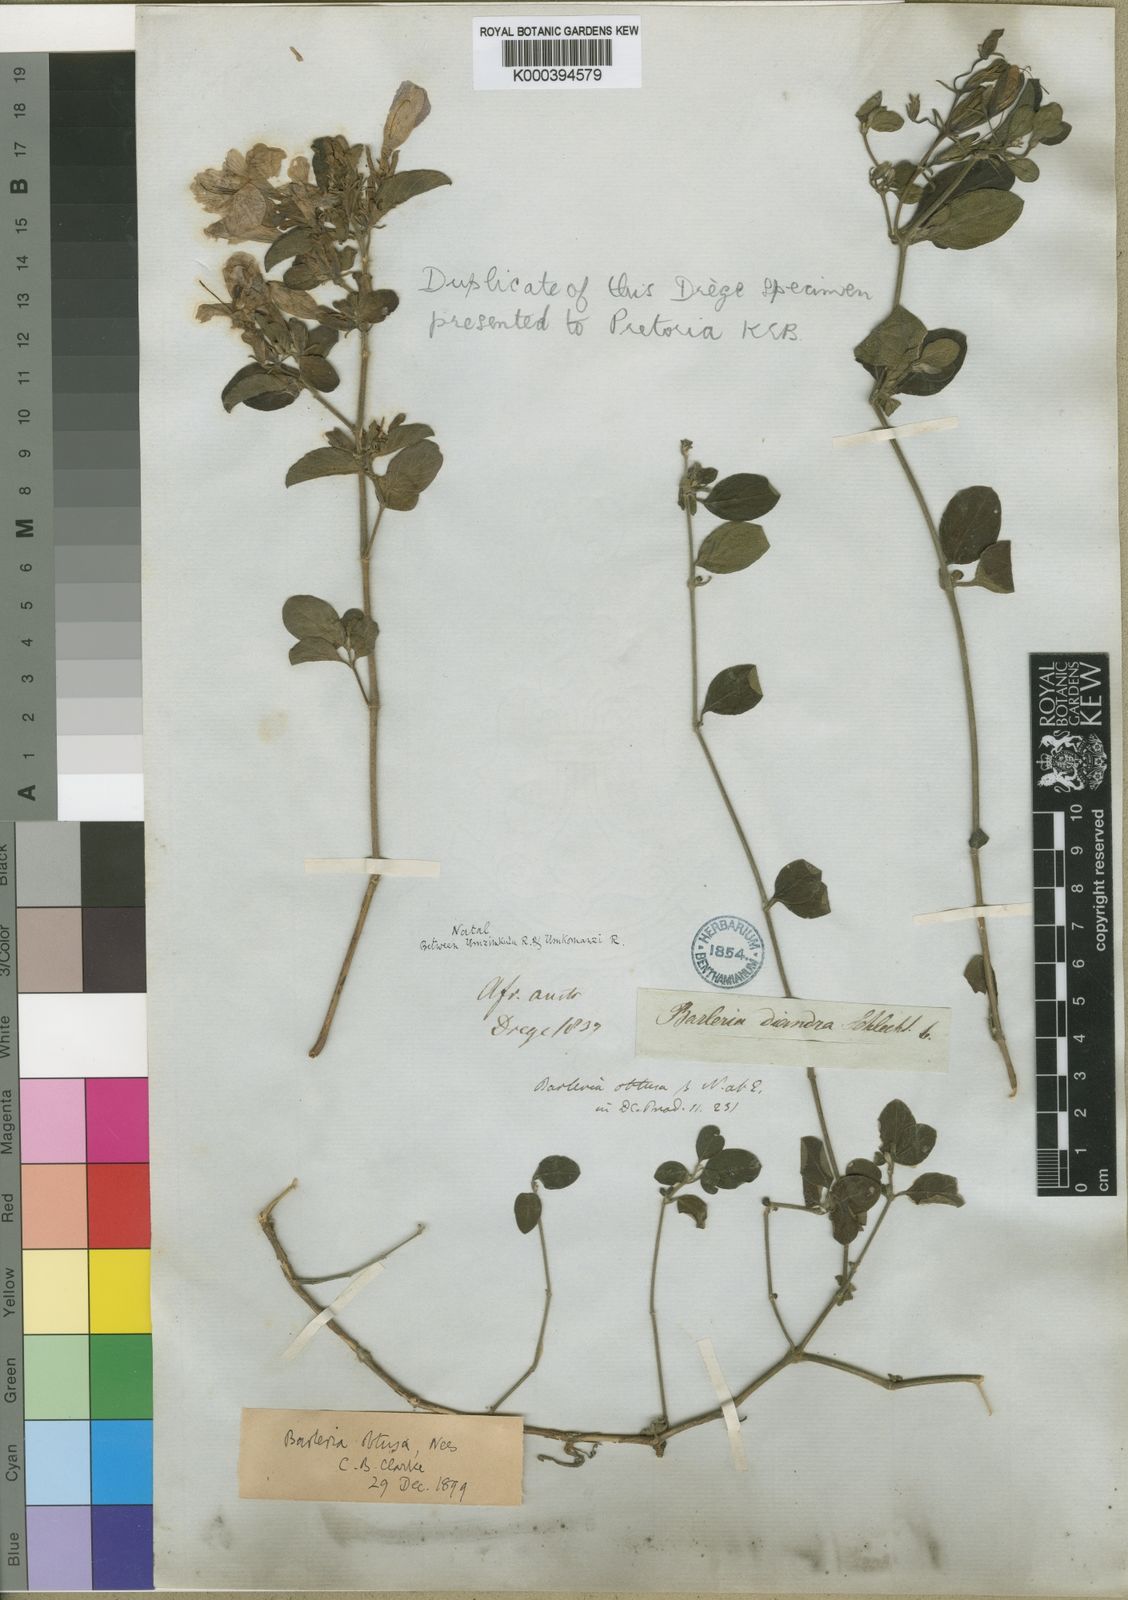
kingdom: Plantae
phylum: Tracheophyta
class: Magnoliopsida
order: Lamiales
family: Acanthaceae
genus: Barleria
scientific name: Barleria obtusa
